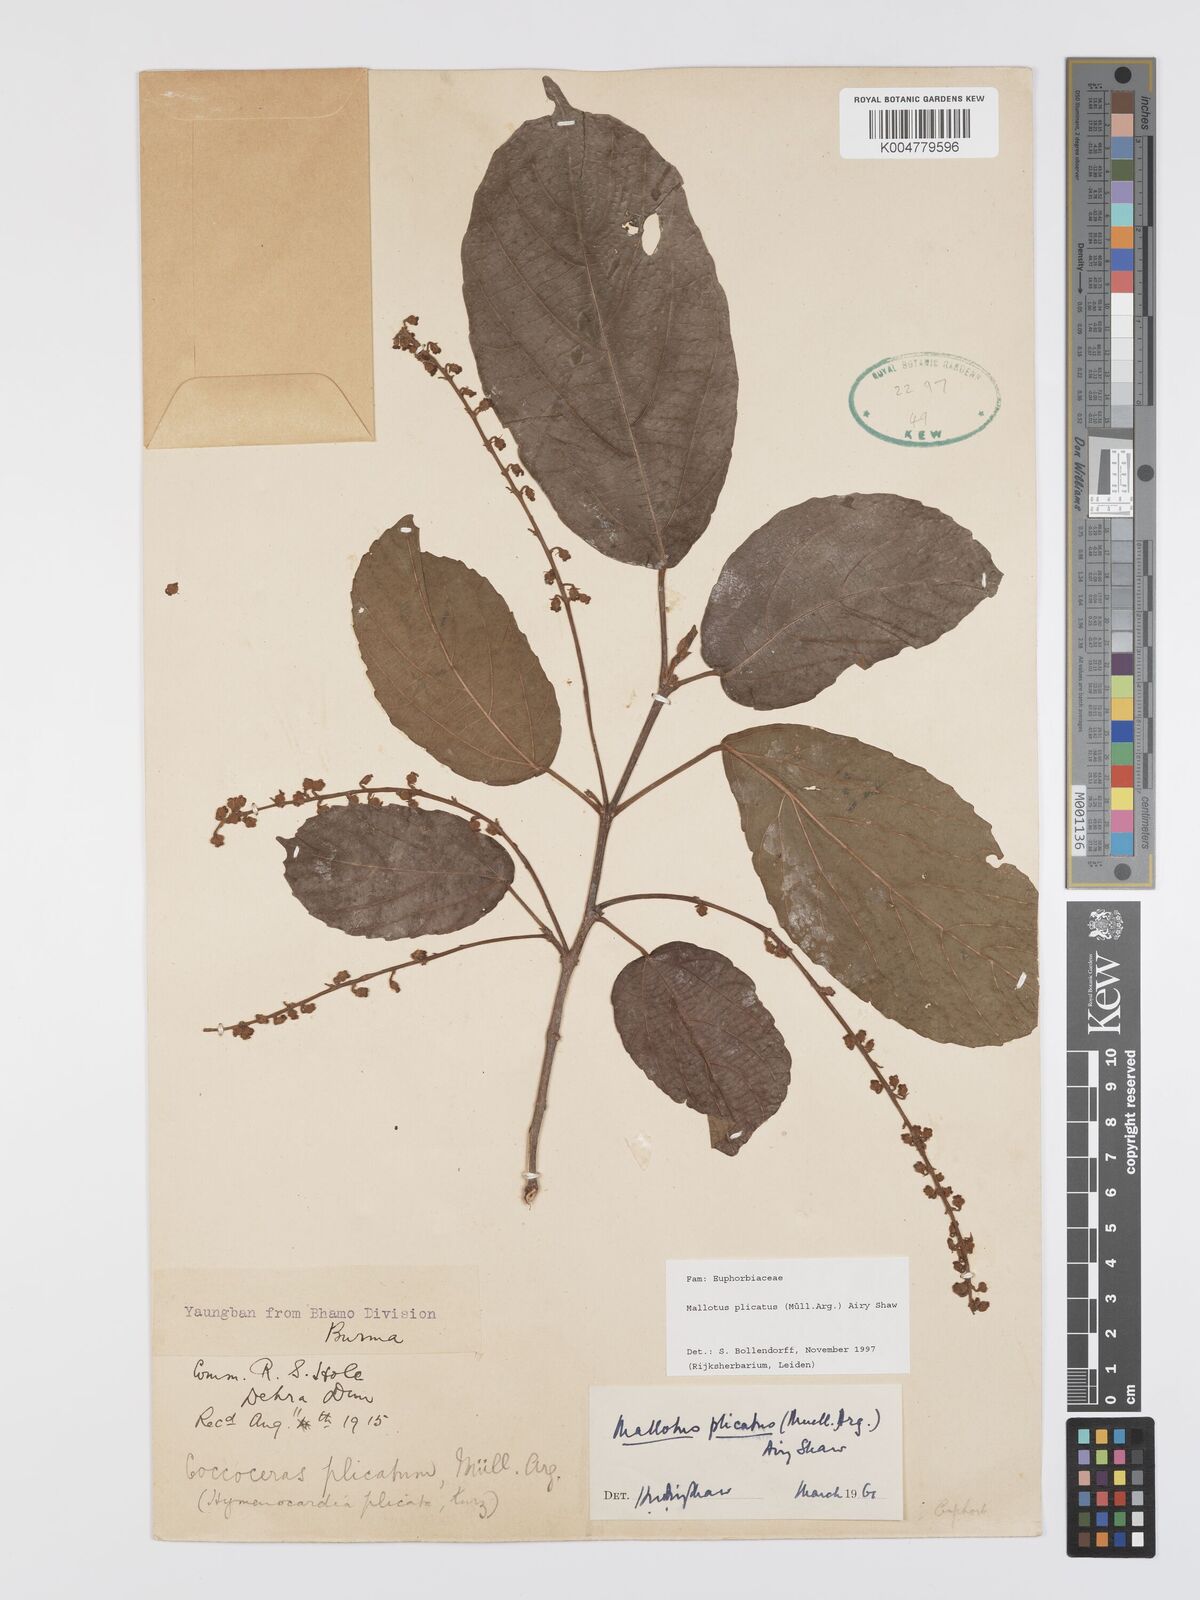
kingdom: Plantae
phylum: Tracheophyta
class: Magnoliopsida
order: Malpighiales
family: Euphorbiaceae
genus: Mallotus
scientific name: Mallotus plicatus
